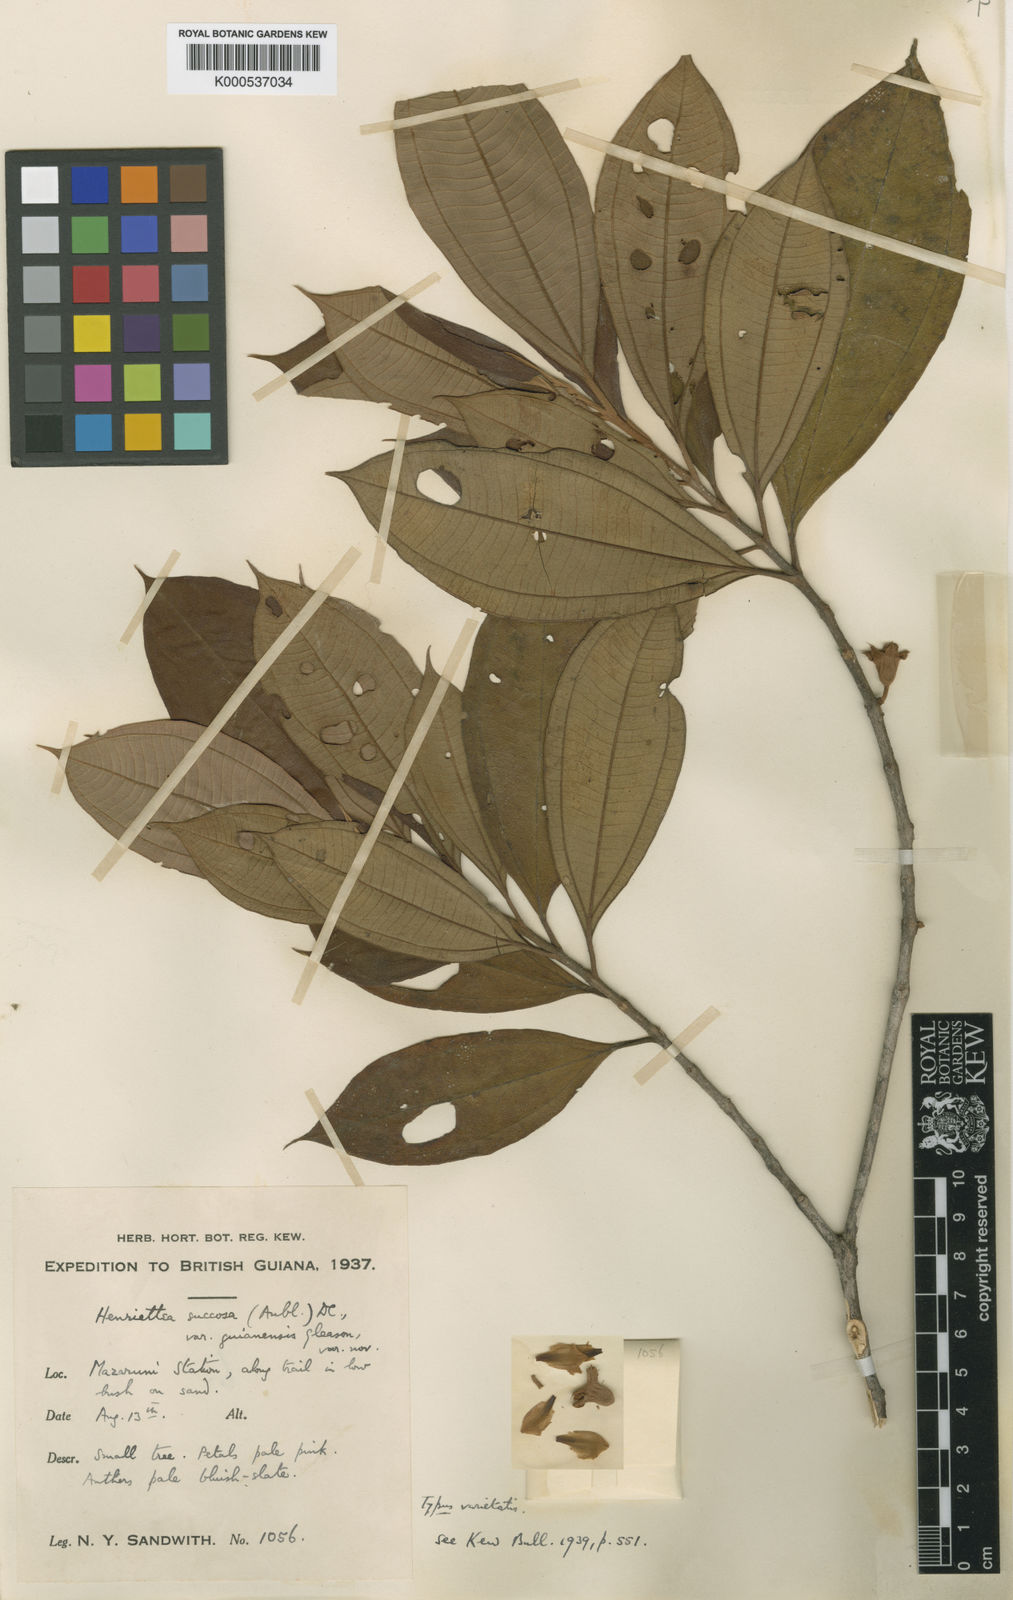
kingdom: Plantae
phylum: Tracheophyta
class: Magnoliopsida
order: Myrtales
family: Melastomataceae
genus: Henriettea
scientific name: Henriettea ramiflora
